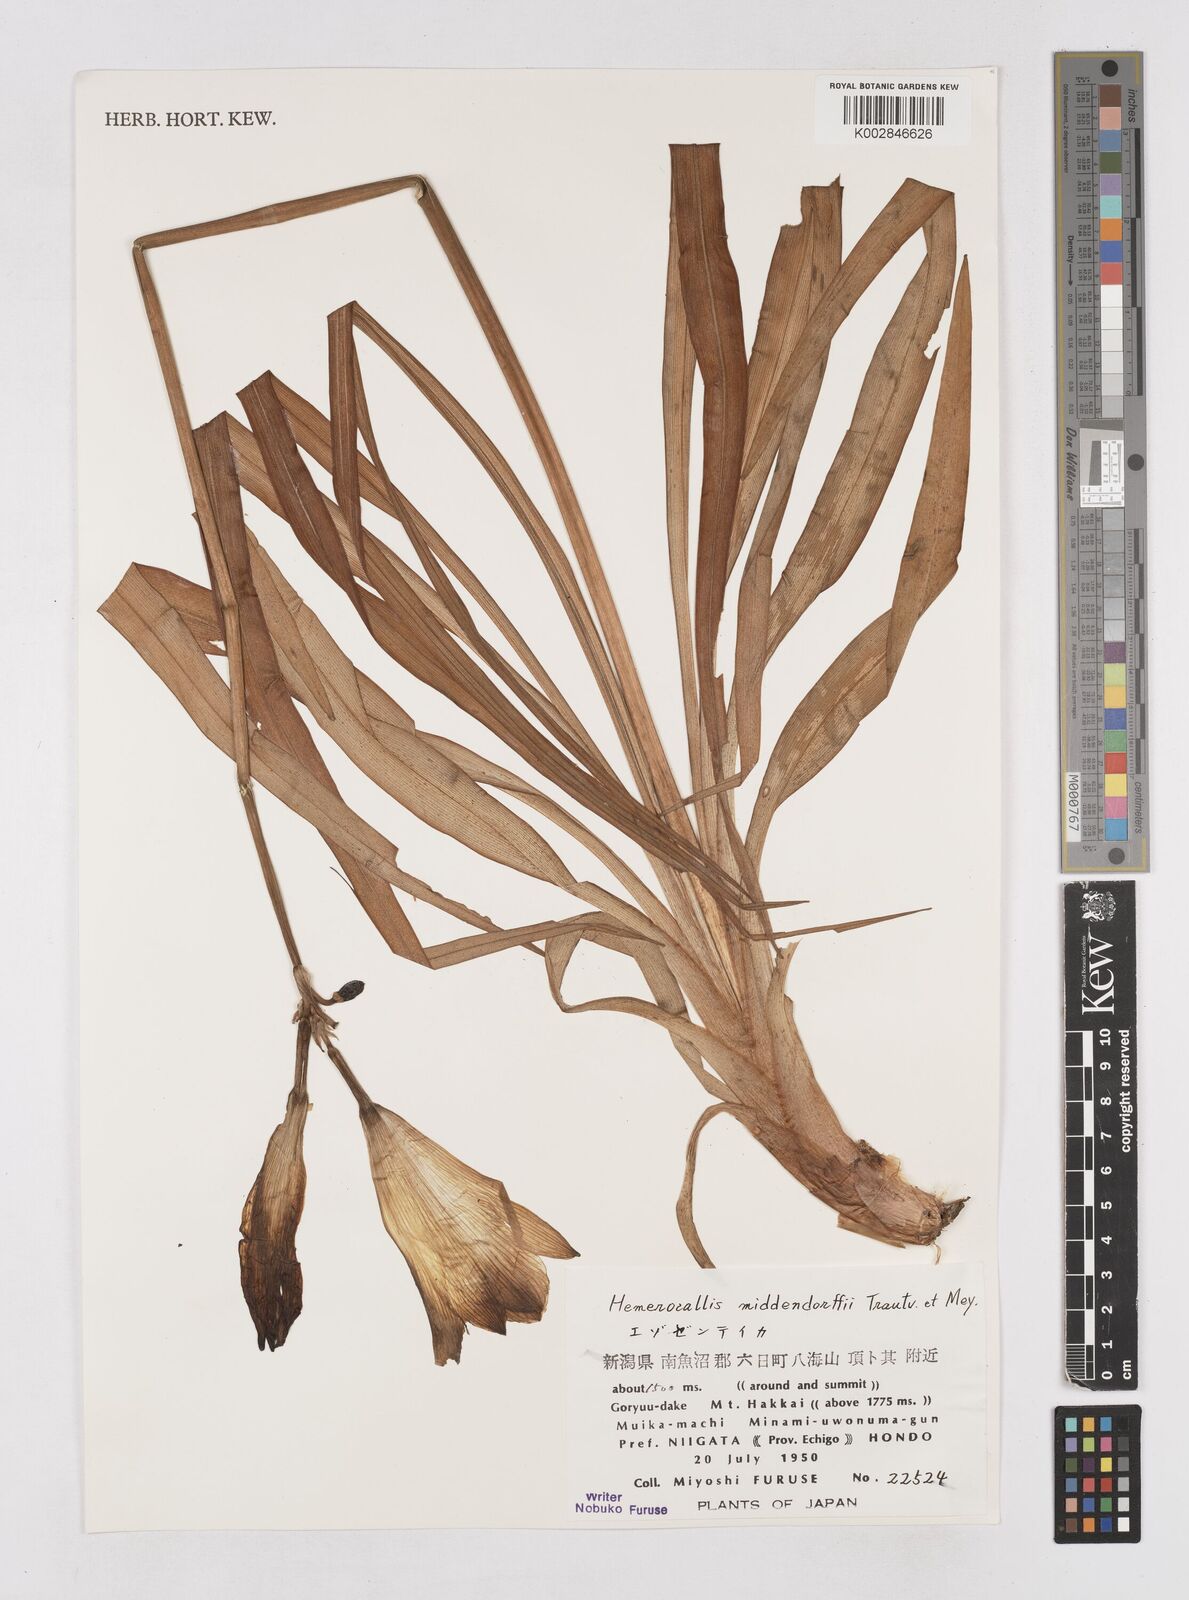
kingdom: Plantae
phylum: Tracheophyta
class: Liliopsida
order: Asparagales
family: Asphodelaceae
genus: Hemerocallis
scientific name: Hemerocallis middendorffii
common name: Amur day-lily
